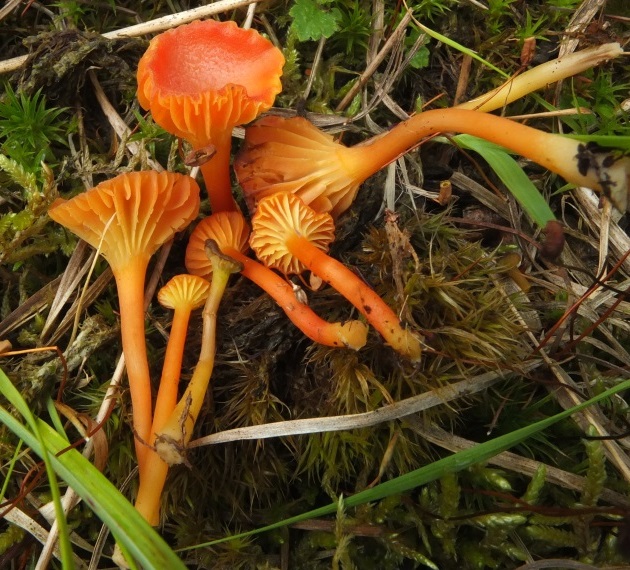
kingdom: Fungi
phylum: Basidiomycota
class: Agaricomycetes
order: Agaricales
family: Hygrophoraceae
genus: Hygrocybe
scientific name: Hygrocybe cantharellus
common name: kantarel-vokshat
